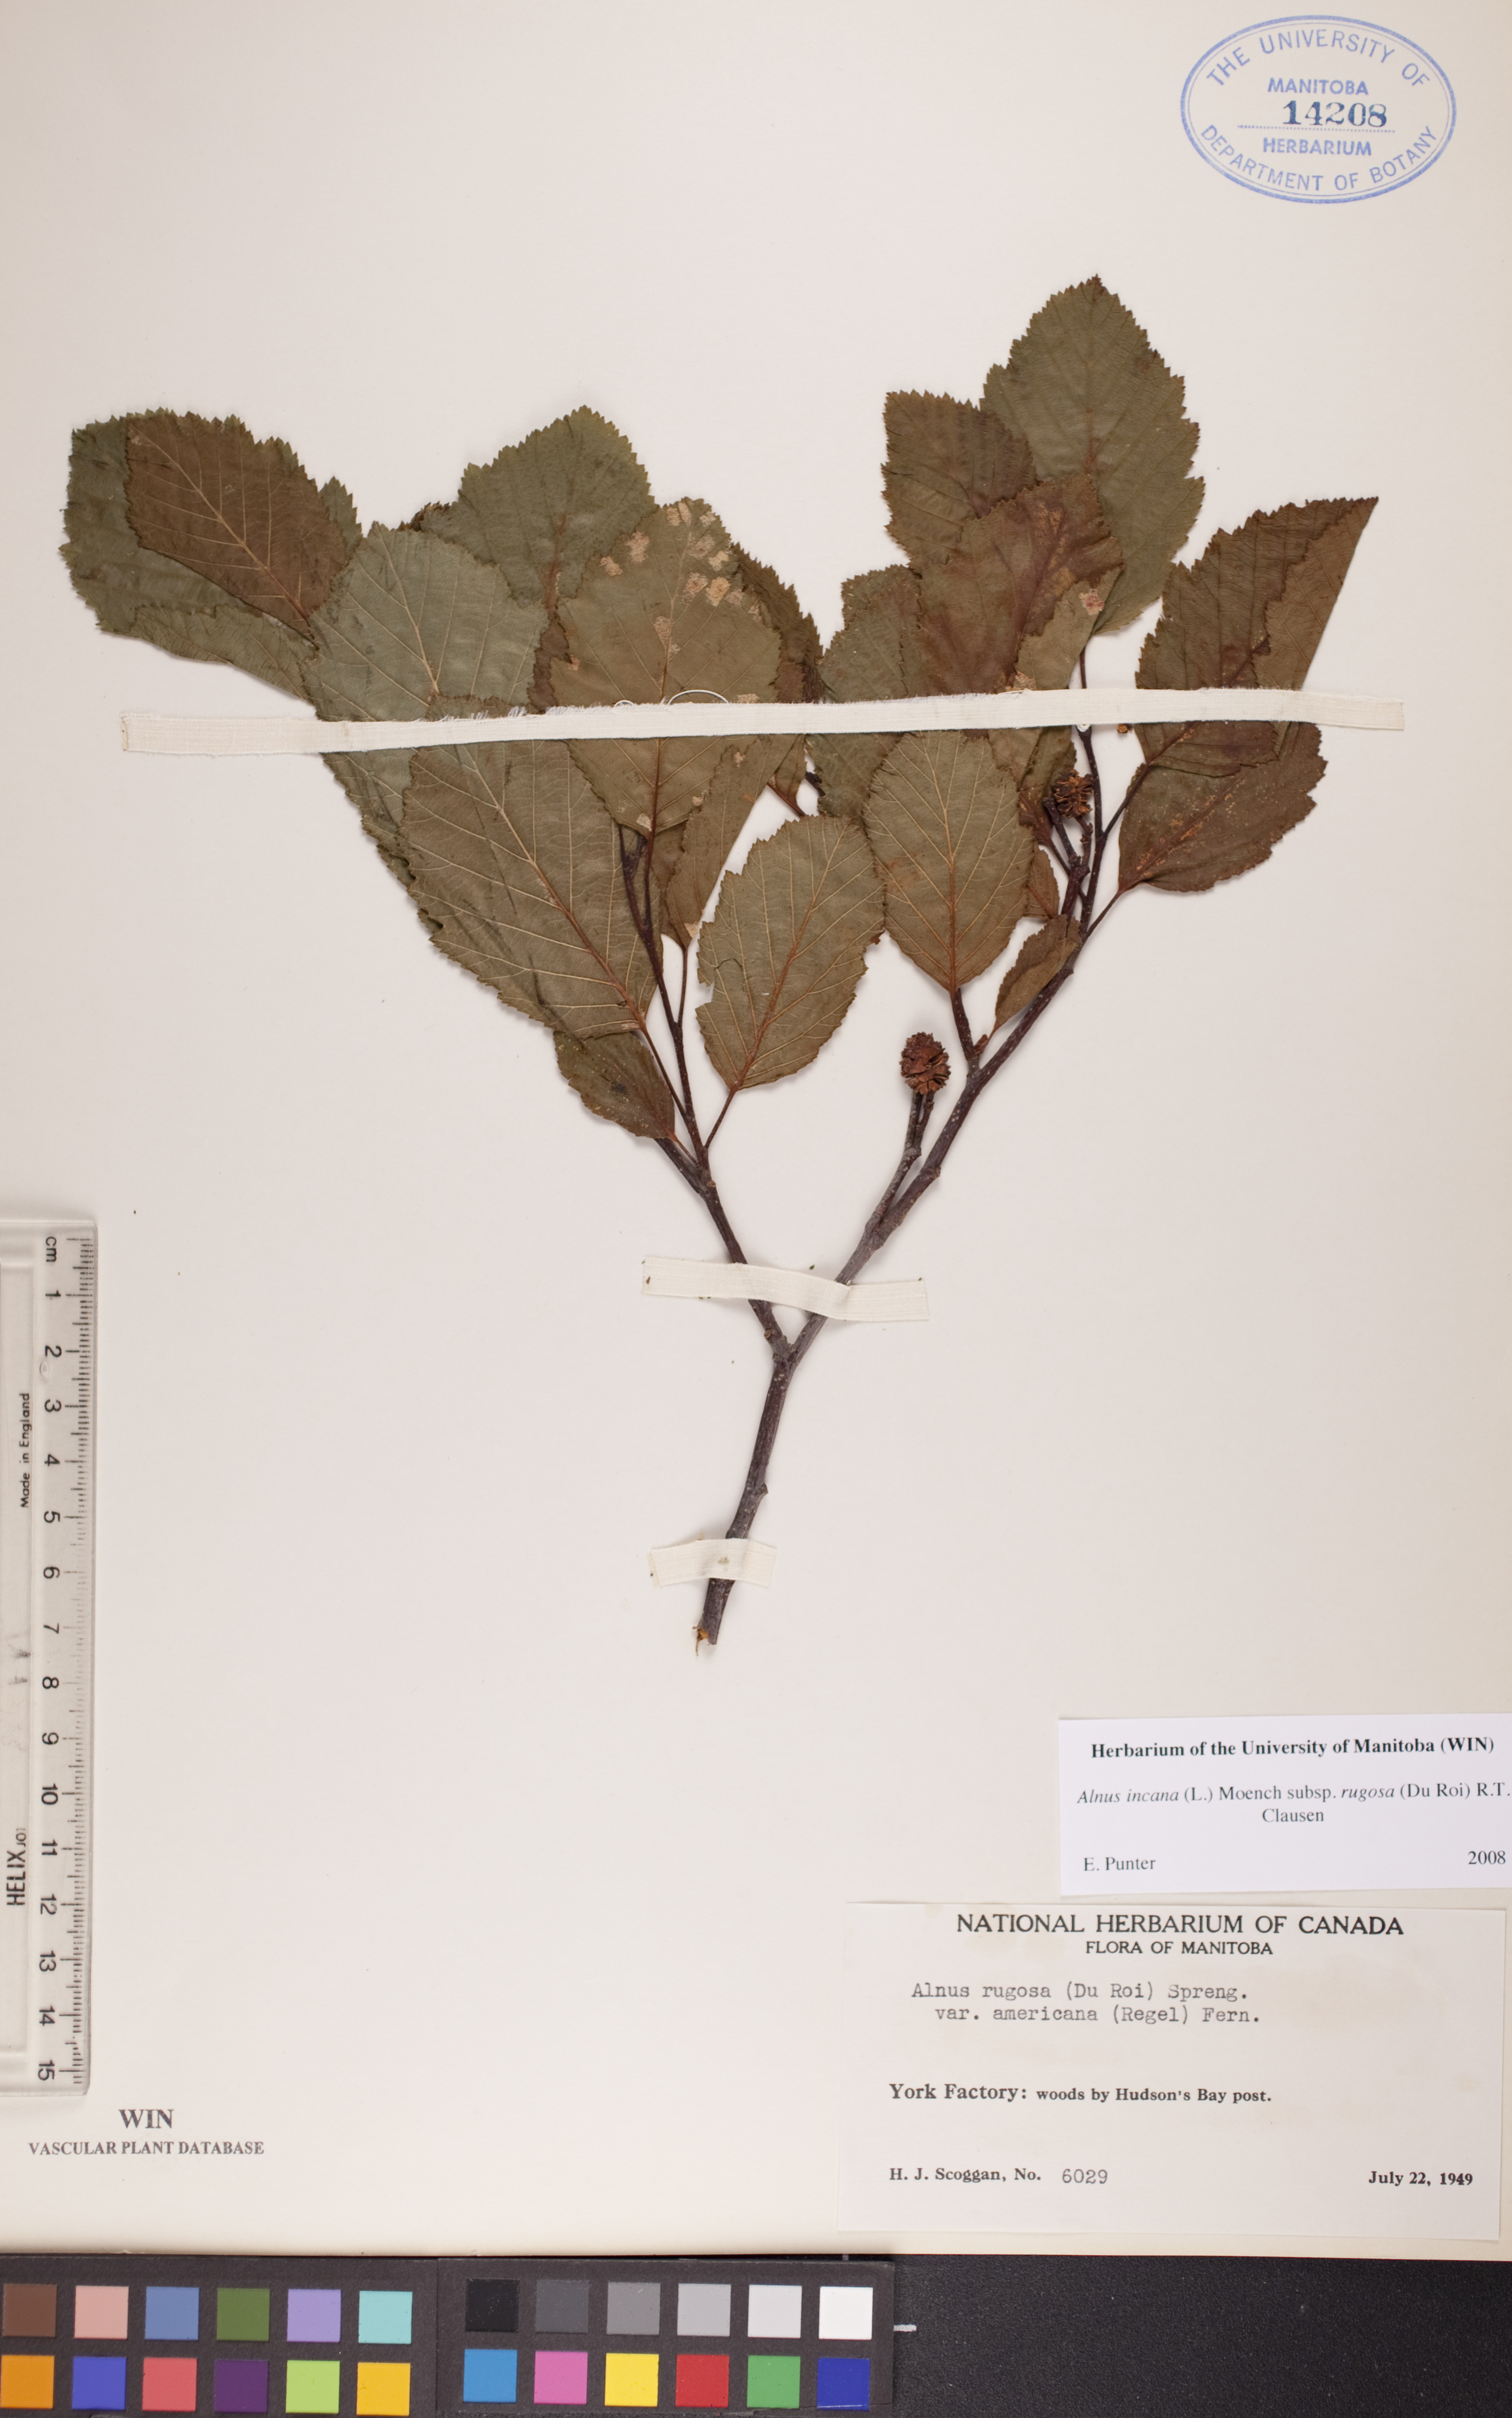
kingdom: Plantae
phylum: Tracheophyta
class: Magnoliopsida
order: Fagales
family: Betulaceae
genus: Alnus
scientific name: Alnus incana
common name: Grey alder
